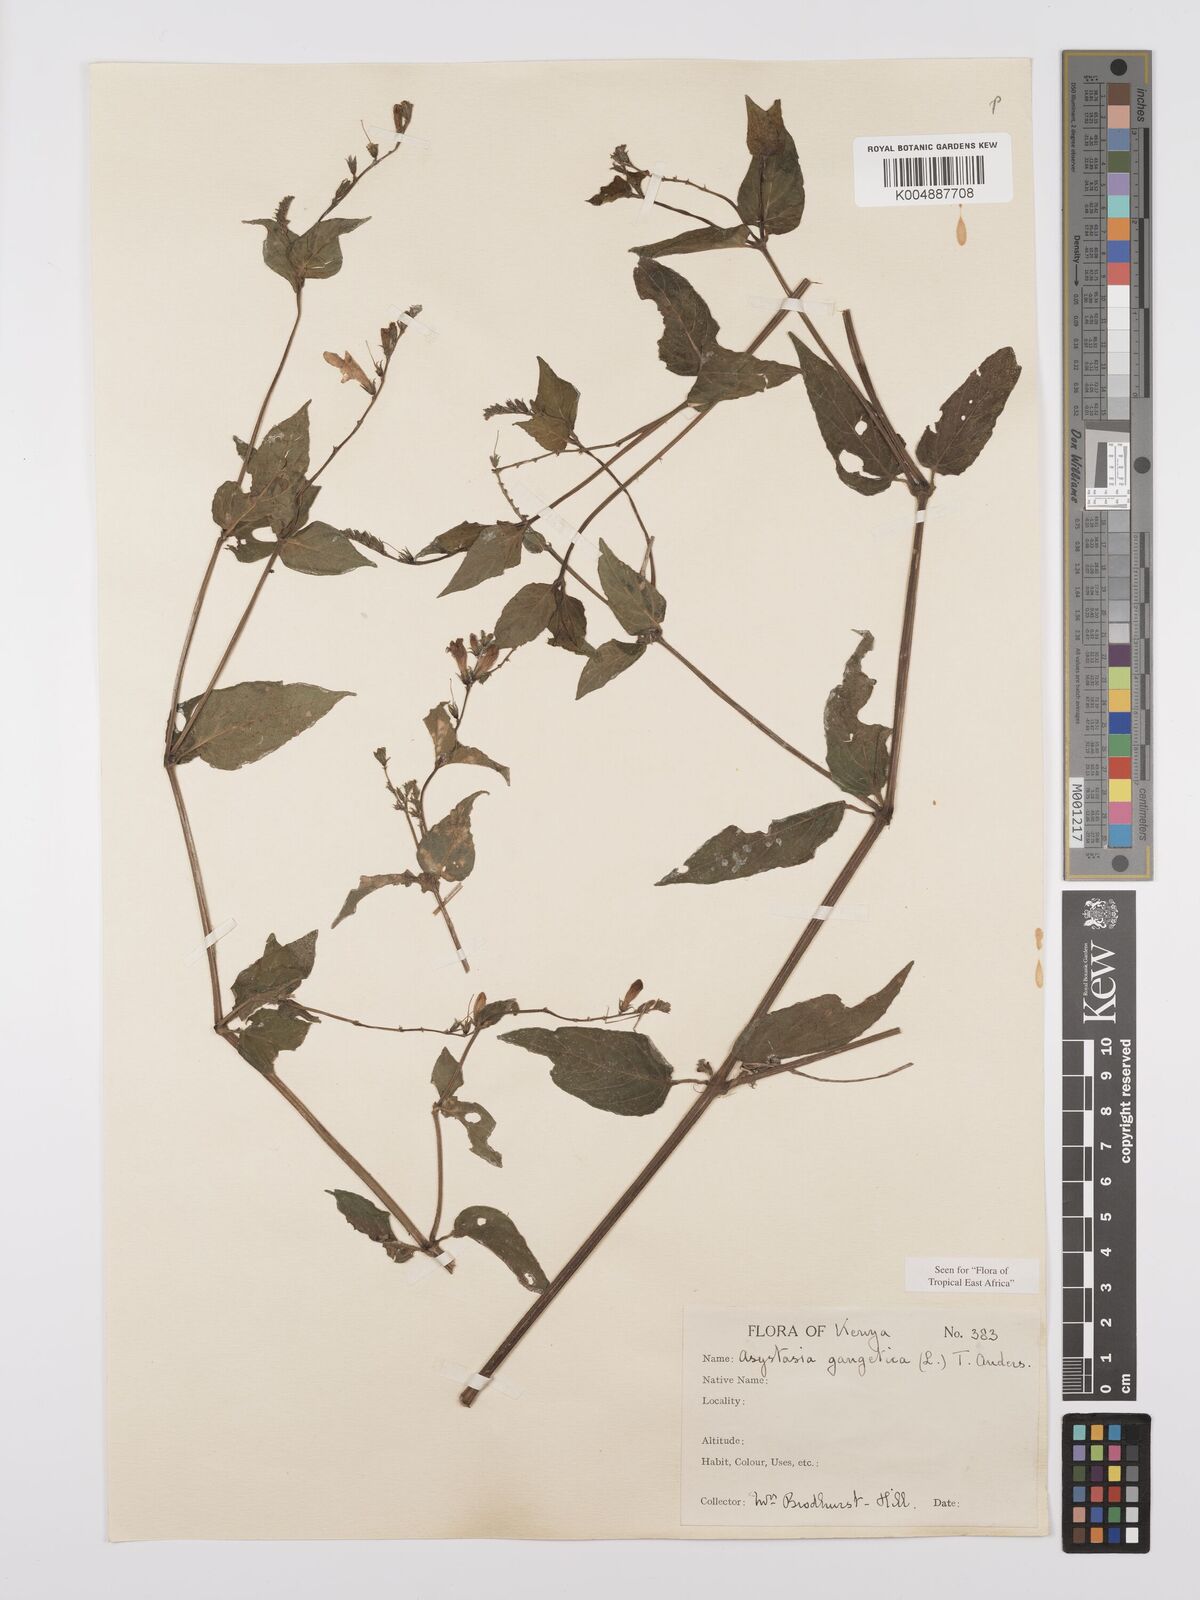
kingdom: Plantae
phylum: Tracheophyta
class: Magnoliopsida
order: Lamiales
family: Acanthaceae
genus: Asystasia
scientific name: Asystasia gangetica
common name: Chinese violet
